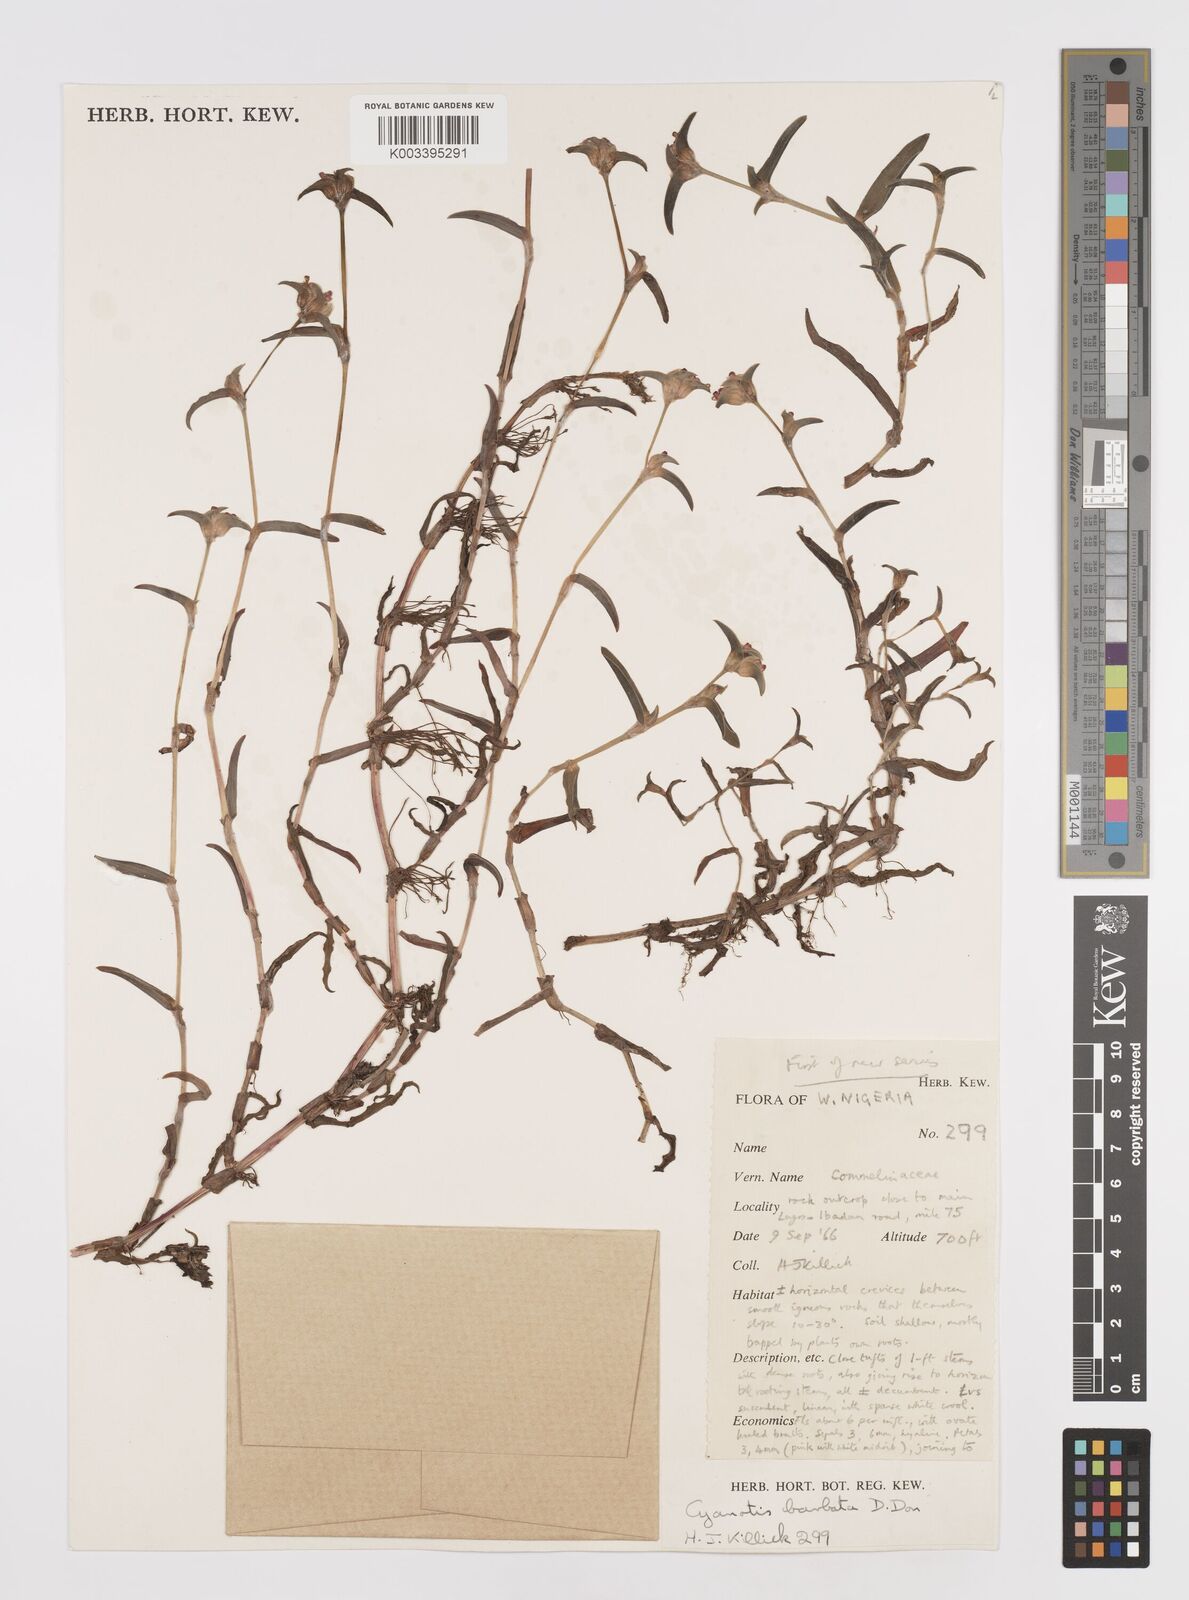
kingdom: Plantae
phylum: Tracheophyta
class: Liliopsida
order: Commelinales
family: Commelinaceae
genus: Cyanotis
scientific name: Cyanotis vaga
